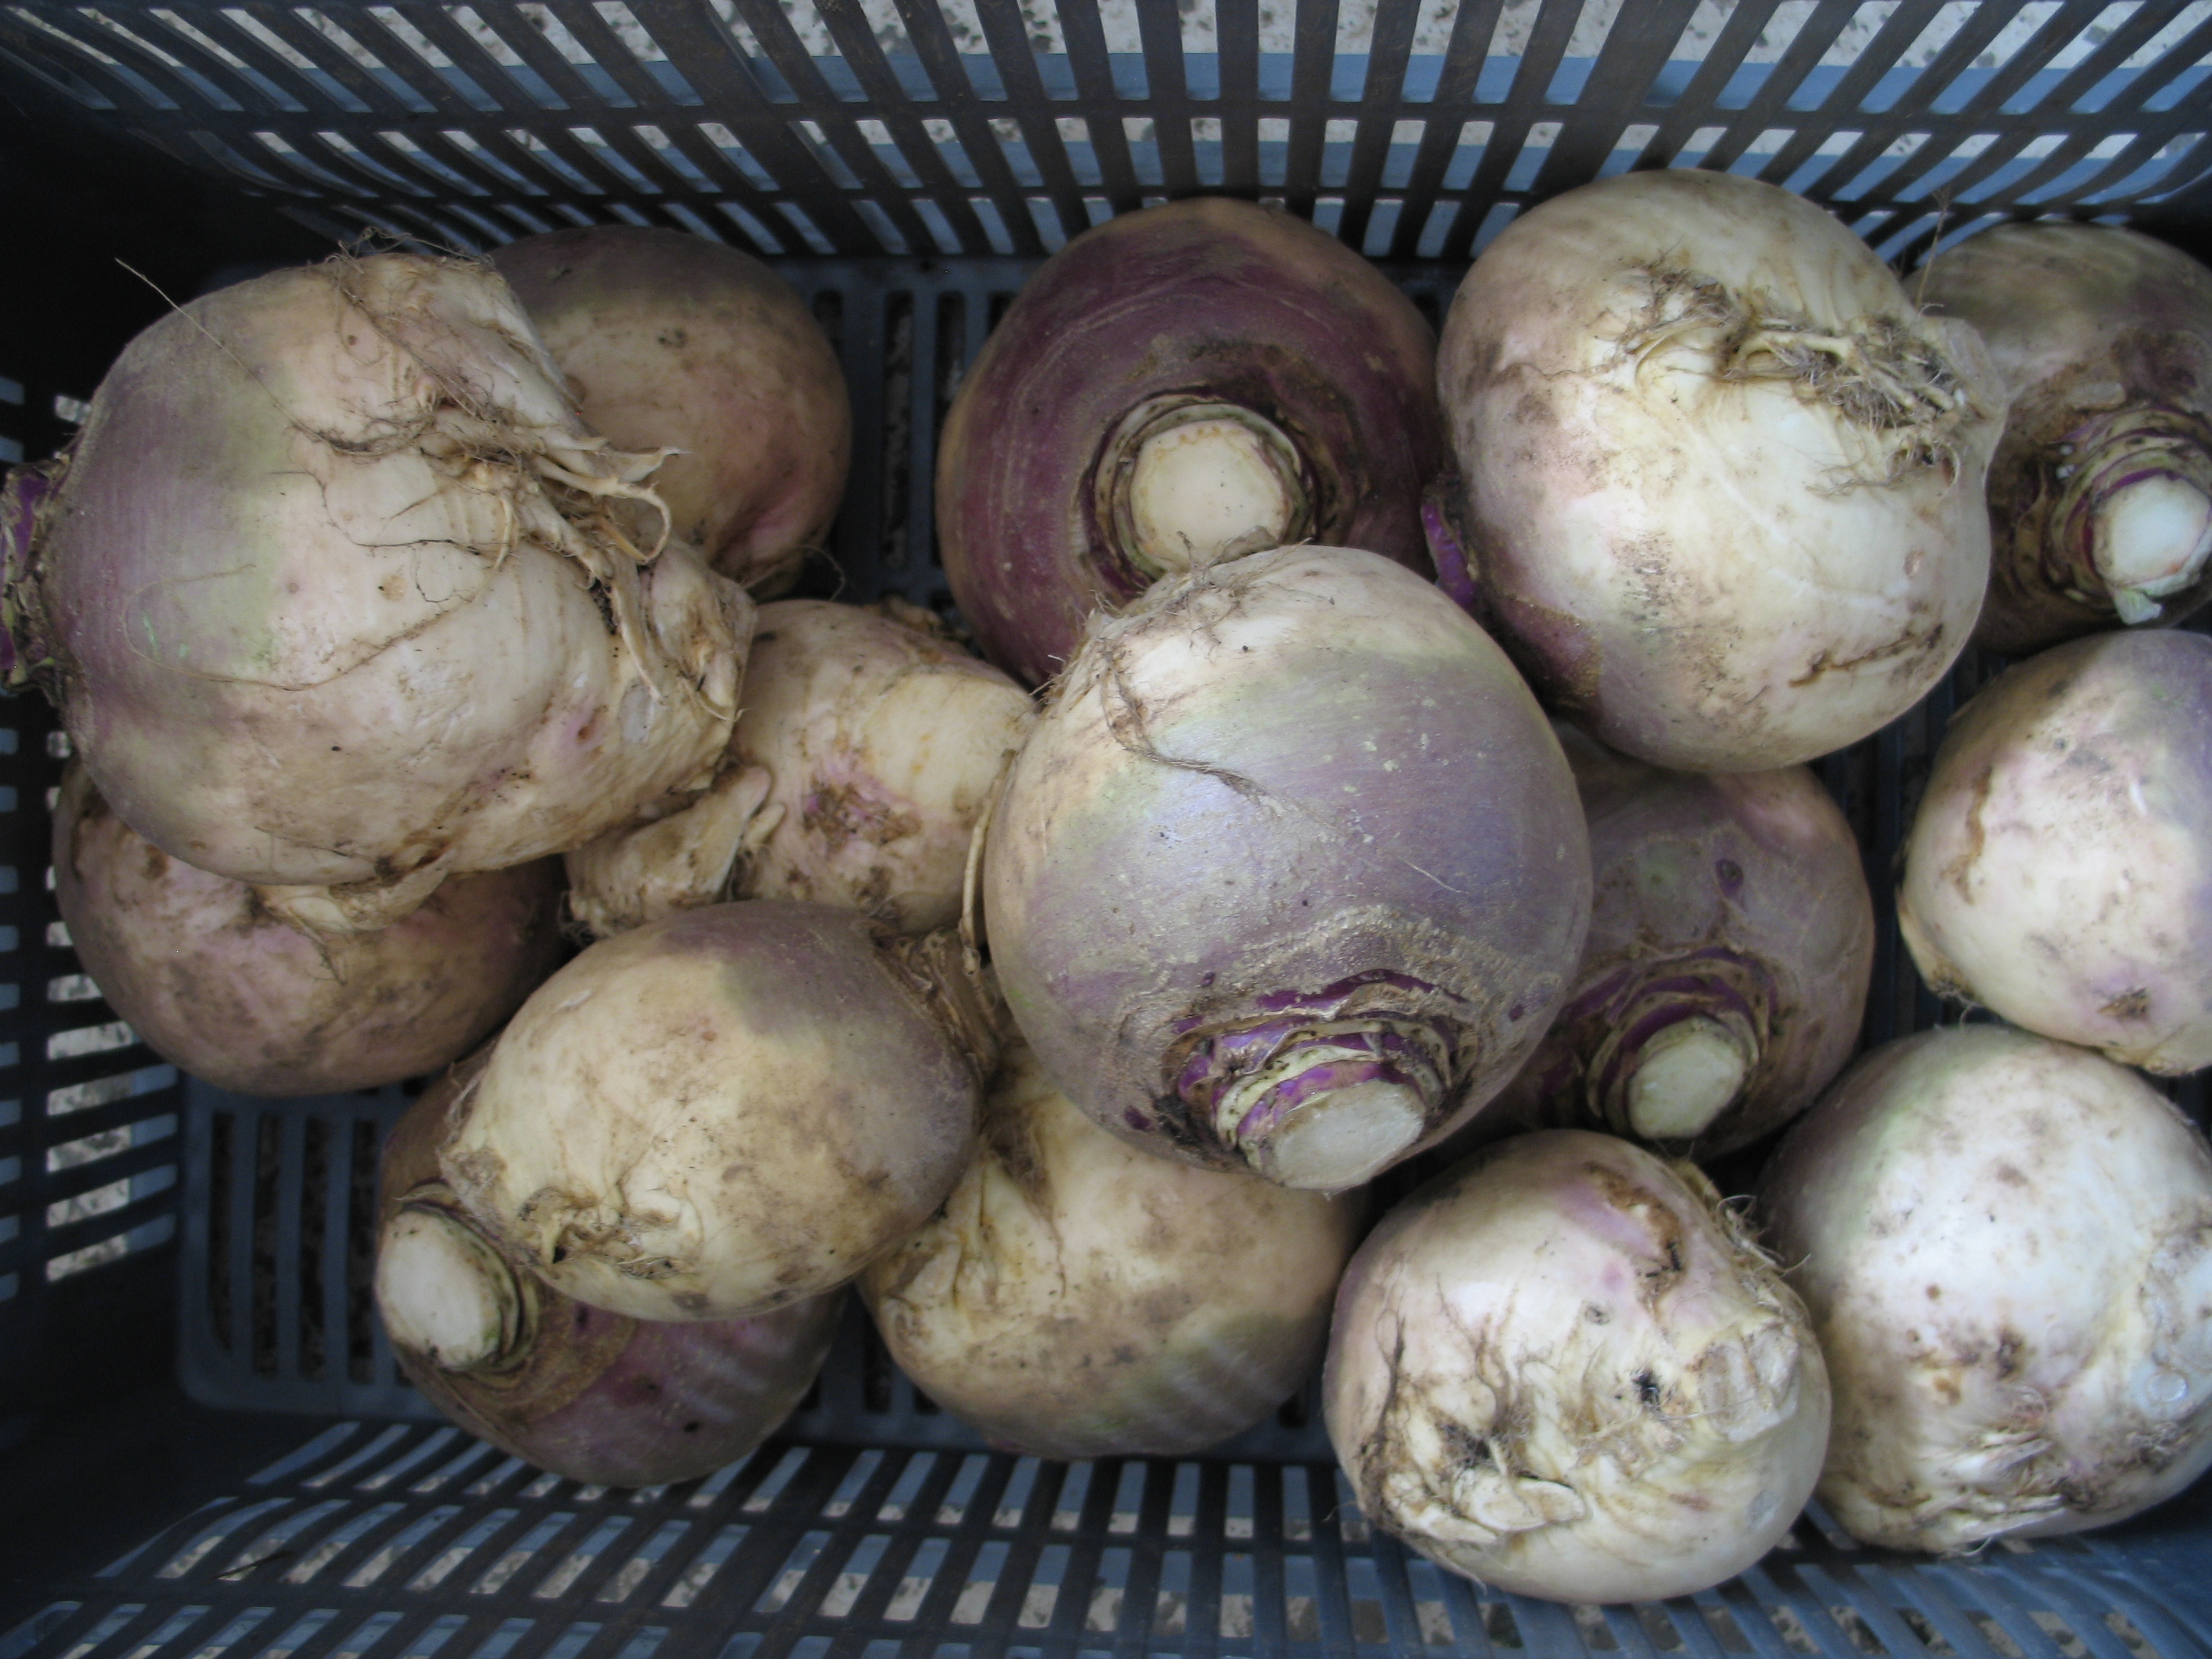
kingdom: Plantae
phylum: Tracheophyta
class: Magnoliopsida
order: Brassicales
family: Brassicaceae
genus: Brassica
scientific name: Brassica napus
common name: Rape
